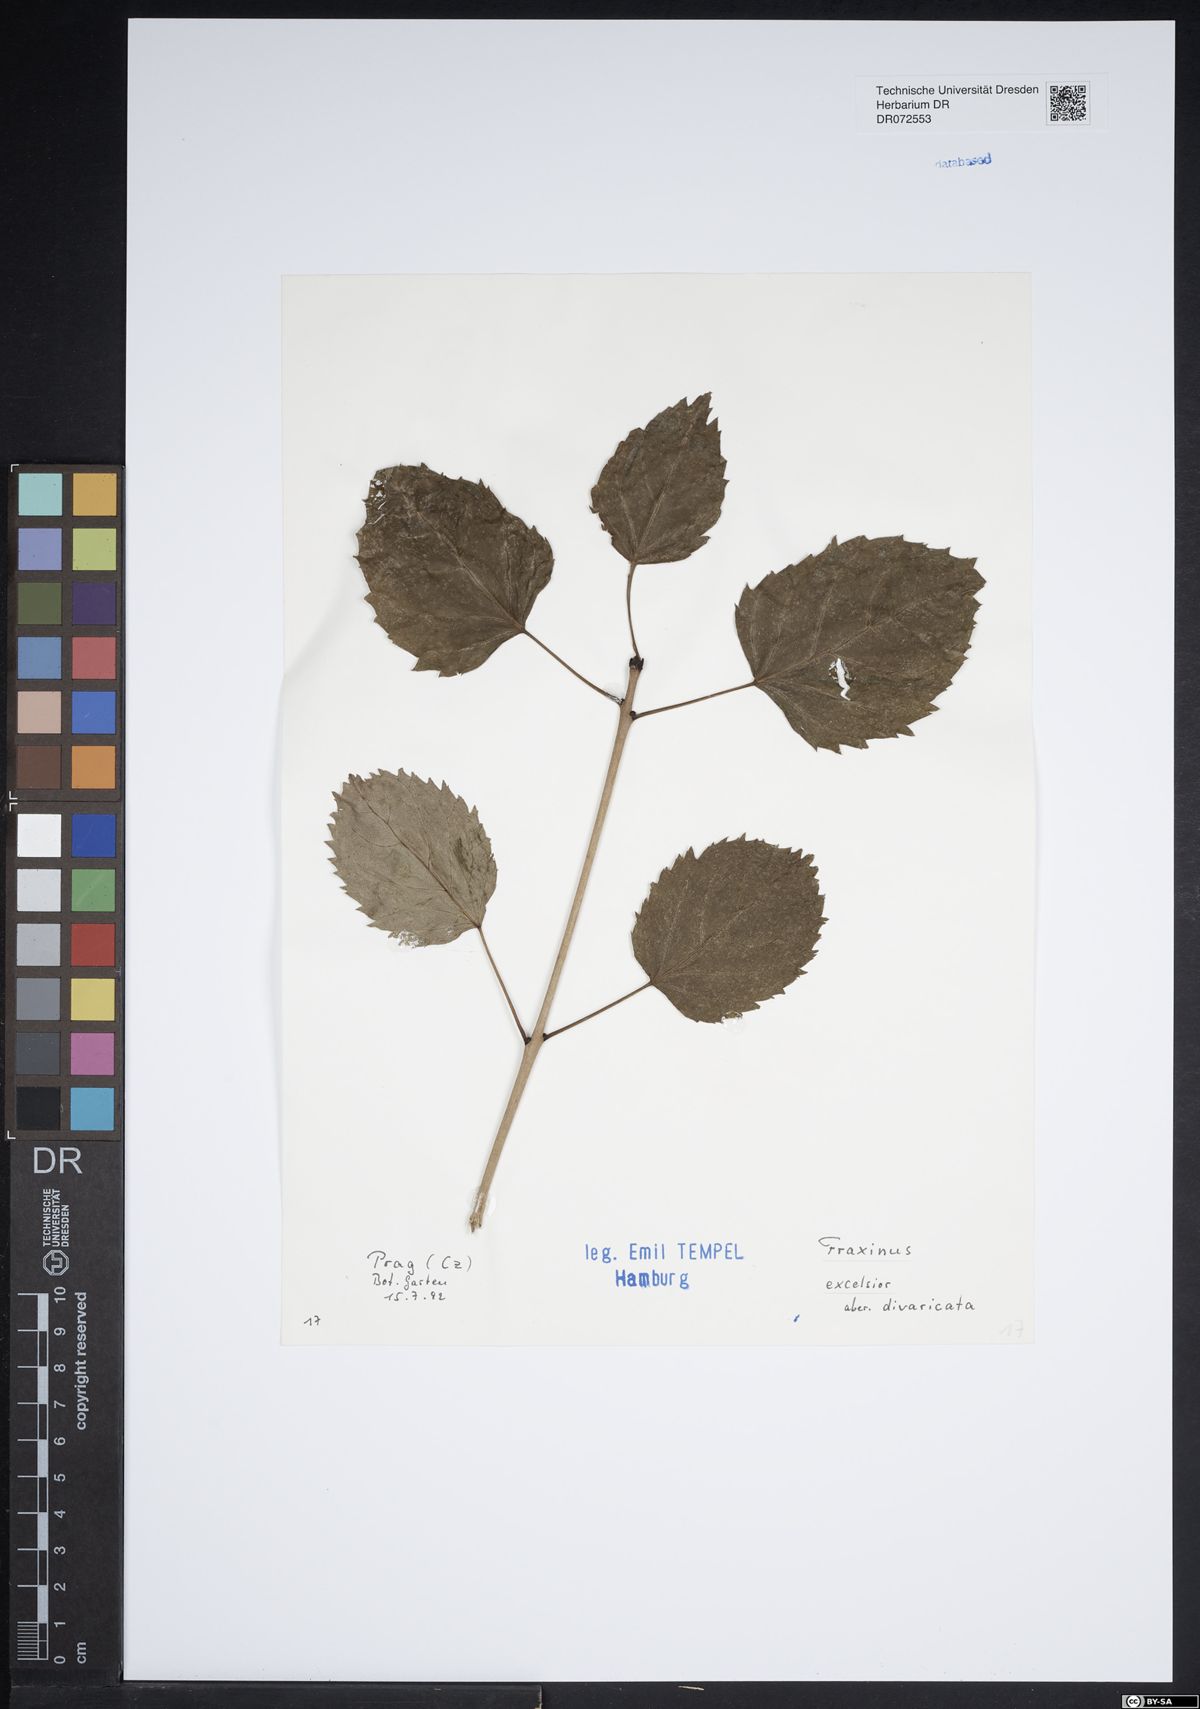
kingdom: Plantae
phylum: Tracheophyta
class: Magnoliopsida
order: Lamiales
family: Oleaceae
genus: Fraxinus
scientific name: Fraxinus excelsior
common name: European ash
